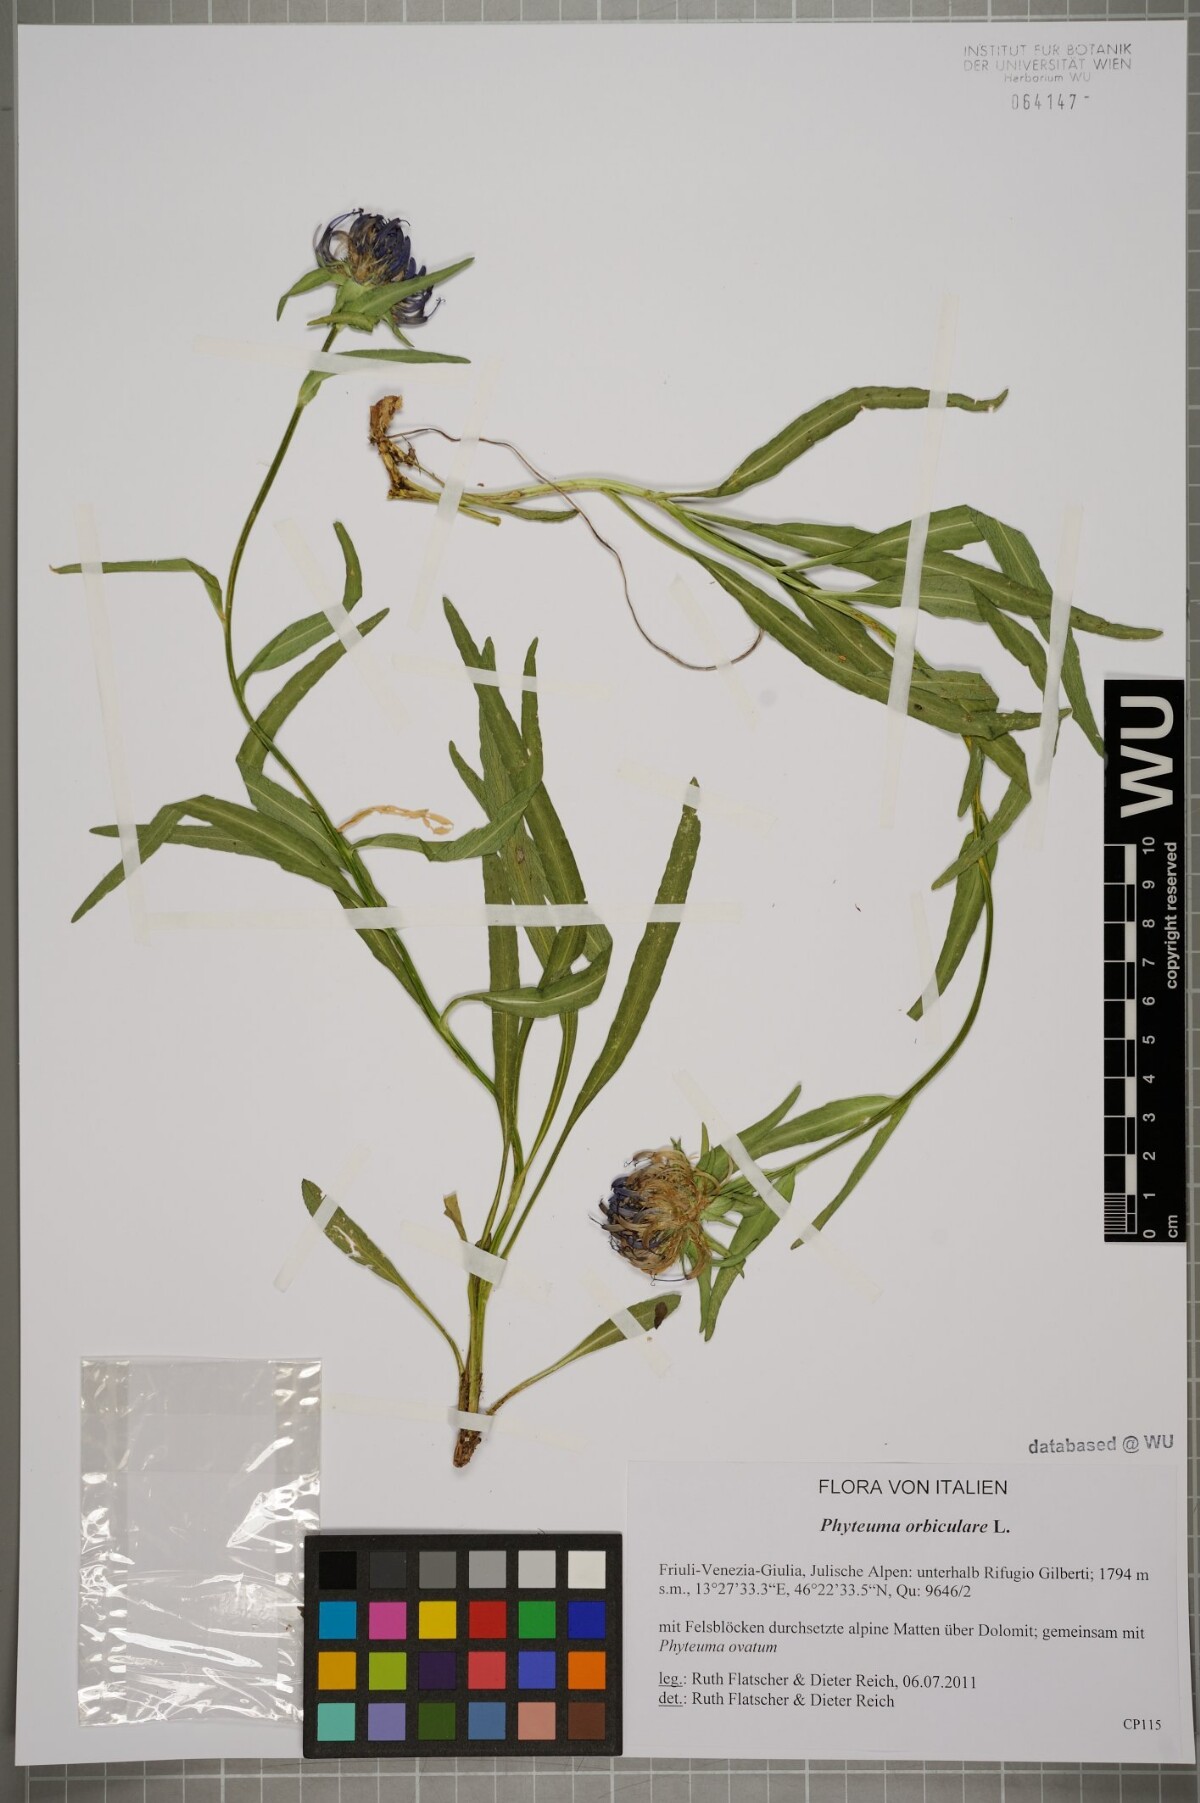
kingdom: Plantae
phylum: Tracheophyta
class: Magnoliopsida
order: Asterales
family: Campanulaceae
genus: Phyteuma
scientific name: Phyteuma orbiculare
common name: Round-headed rampion
